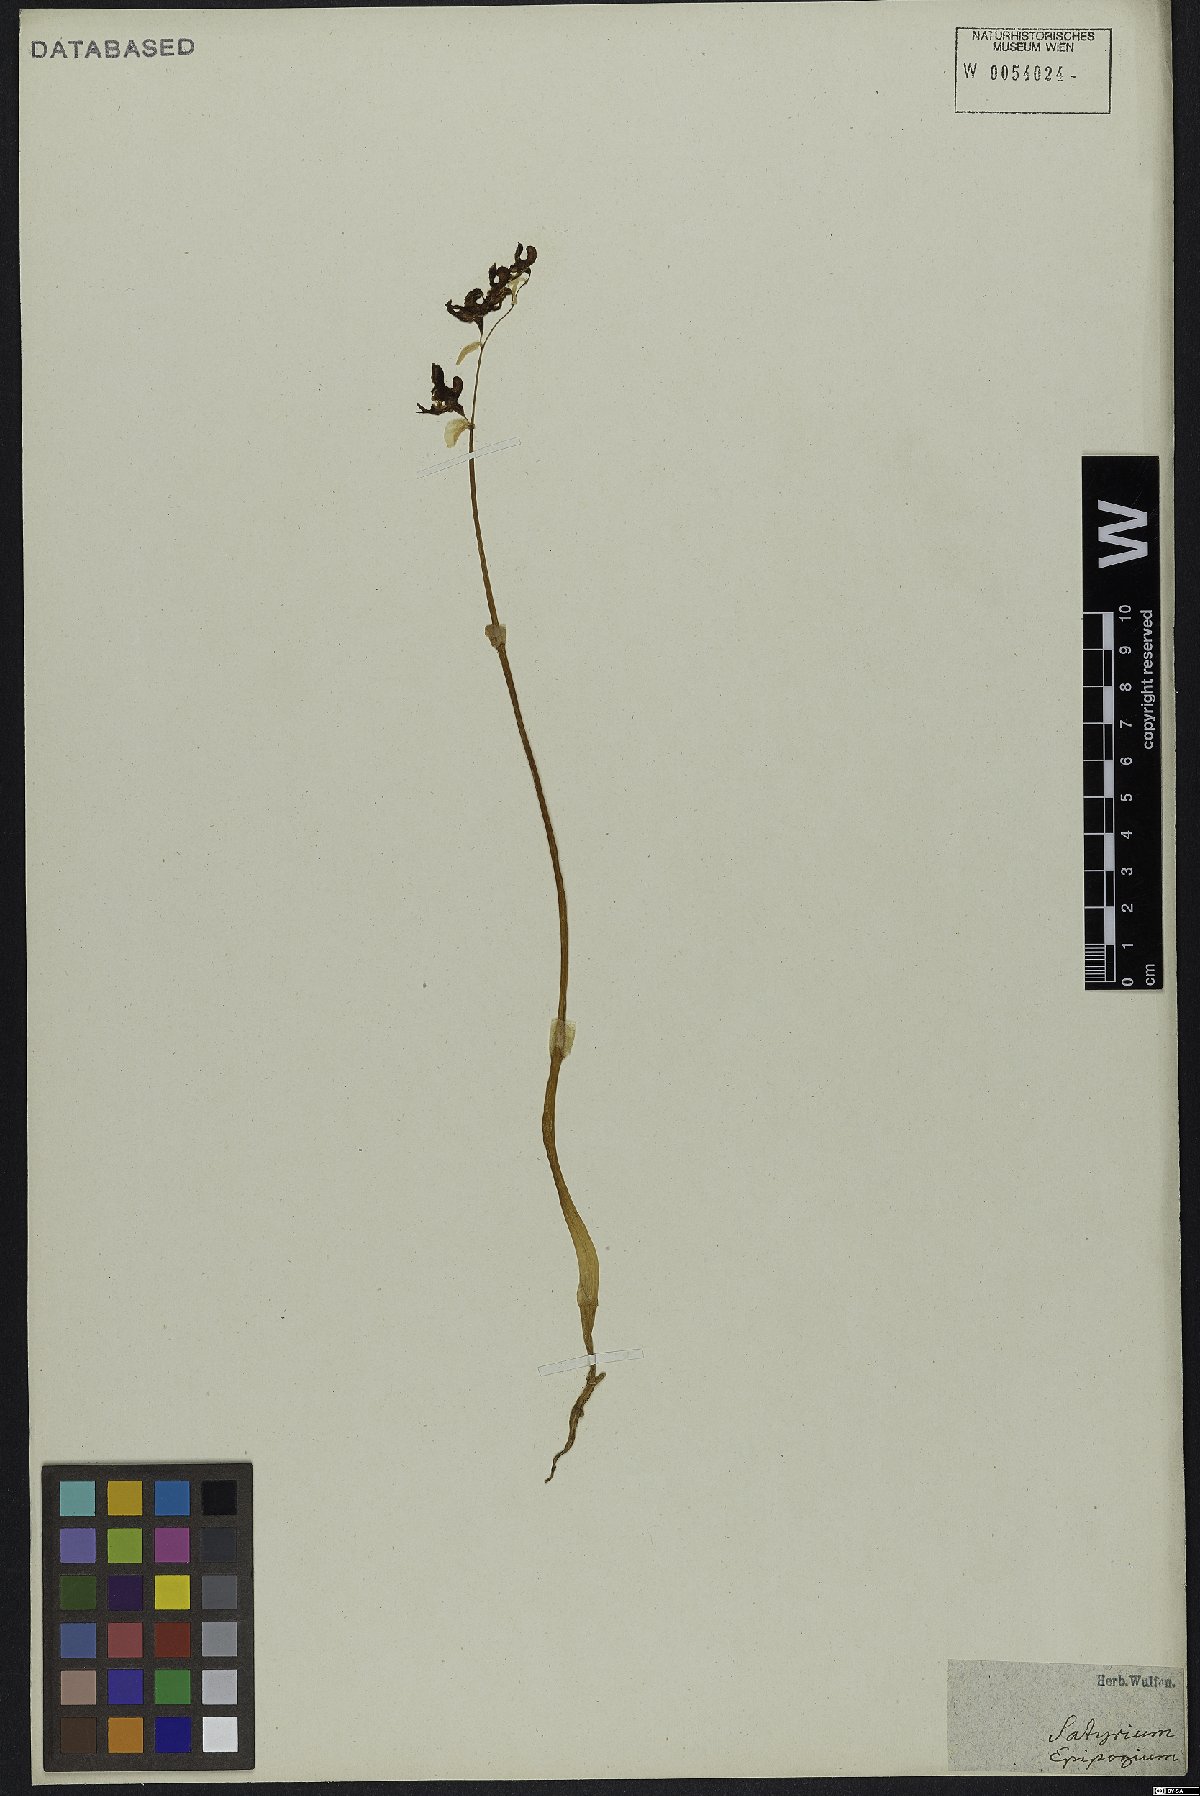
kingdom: Plantae
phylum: Tracheophyta
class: Liliopsida
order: Asparagales
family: Orchidaceae
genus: Epipogium
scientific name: Epipogium aphyllum
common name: Ghost orchid
